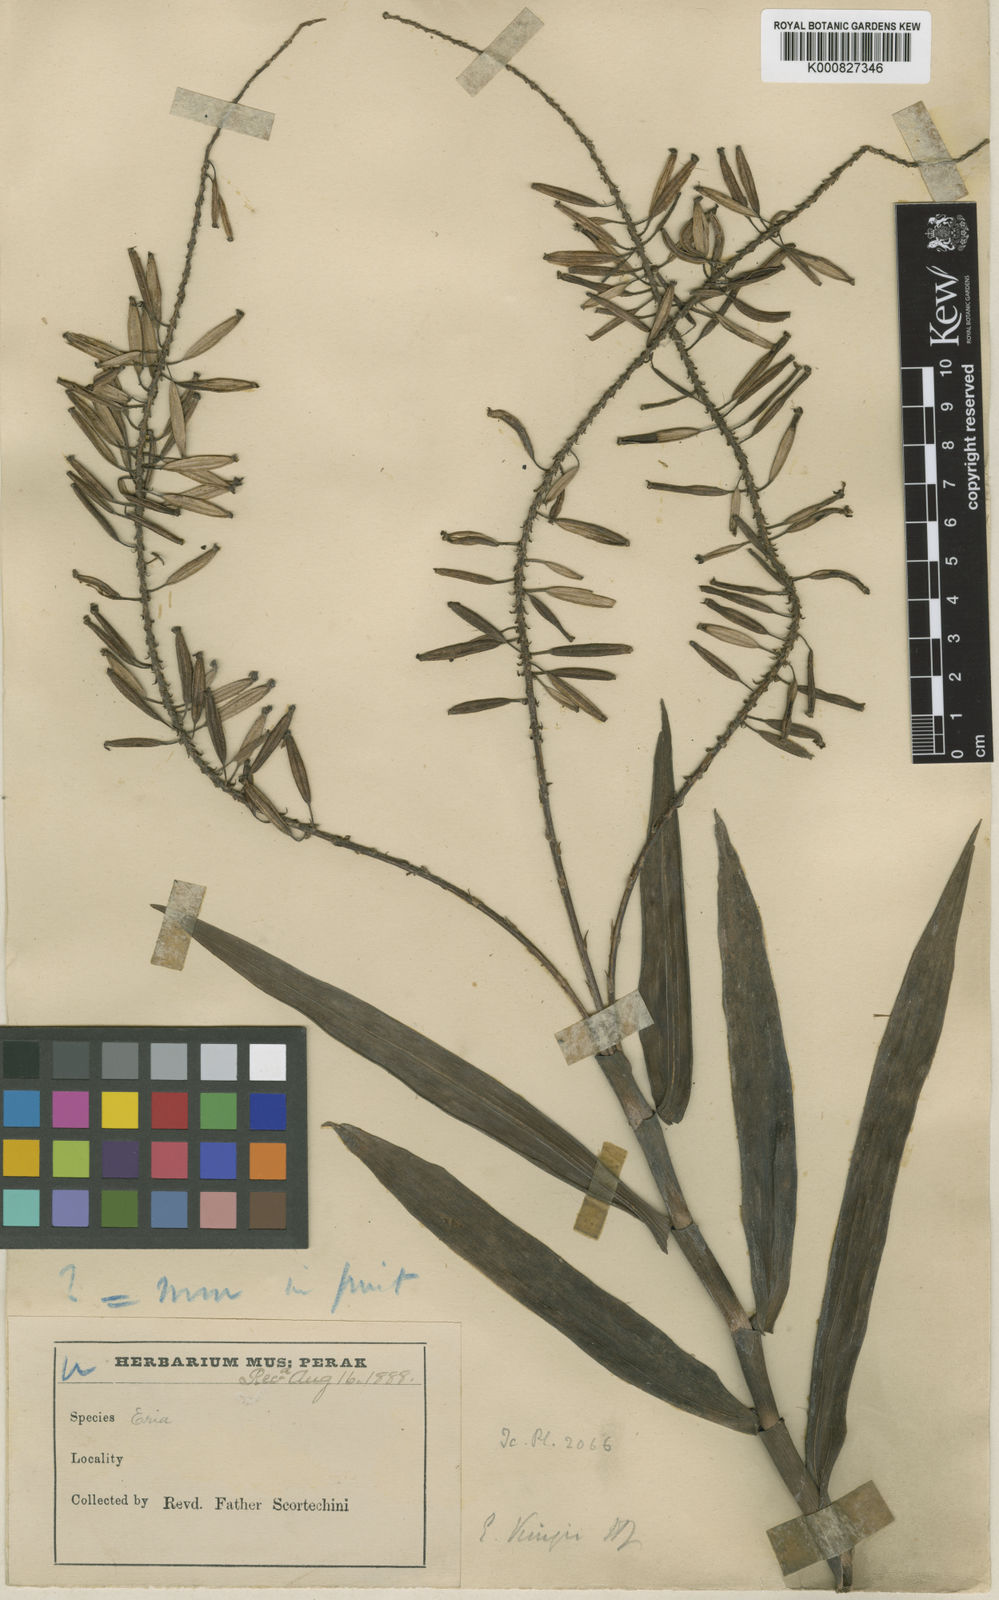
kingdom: Plantae
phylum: Tracheophyta
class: Liliopsida
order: Asparagales
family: Orchidaceae
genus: Mycaranthes
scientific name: Mycaranthes oblitterata
